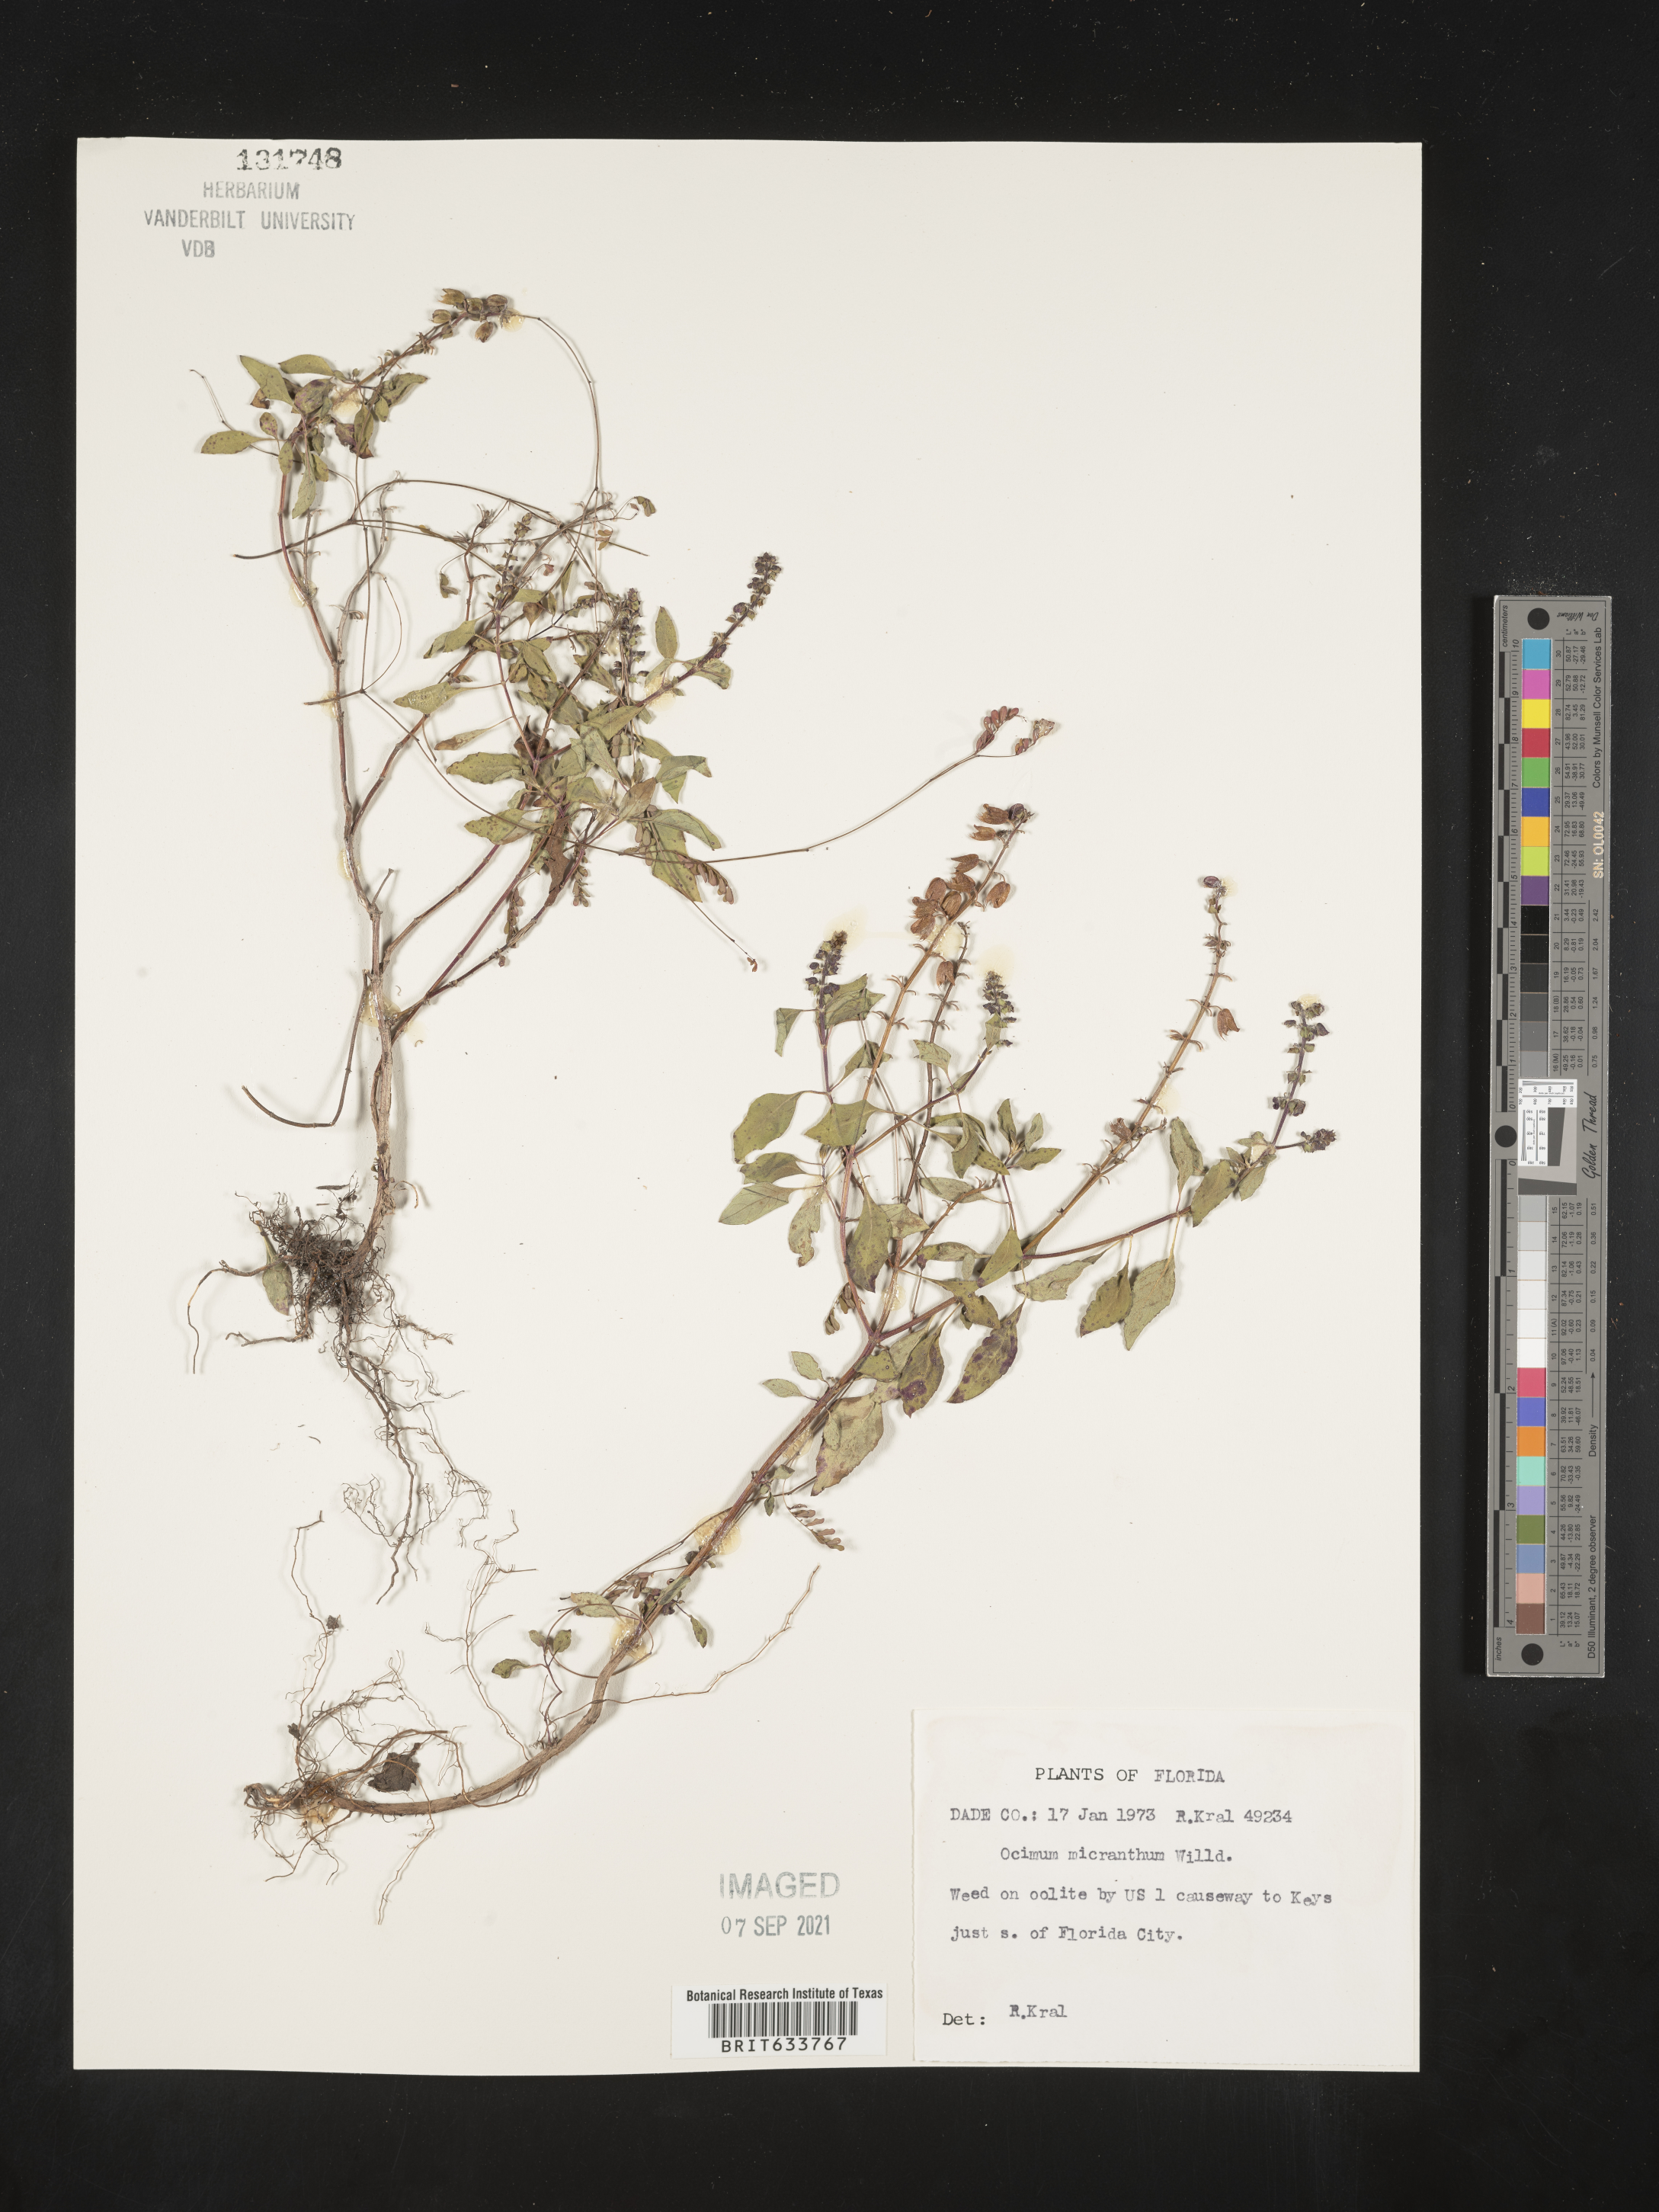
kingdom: Plantae
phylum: Tracheophyta
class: Magnoliopsida
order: Lamiales
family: Lamiaceae
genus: Ocimum
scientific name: Ocimum
